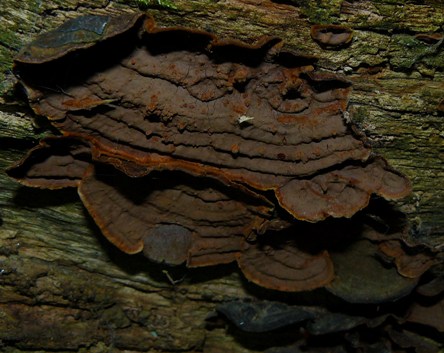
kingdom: Fungi
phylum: Basidiomycota
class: Agaricomycetes
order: Hymenochaetales
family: Hymenochaetaceae
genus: Hymenochaete
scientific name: Hymenochaete rubiginosa
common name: stiv ruslædersvamp
